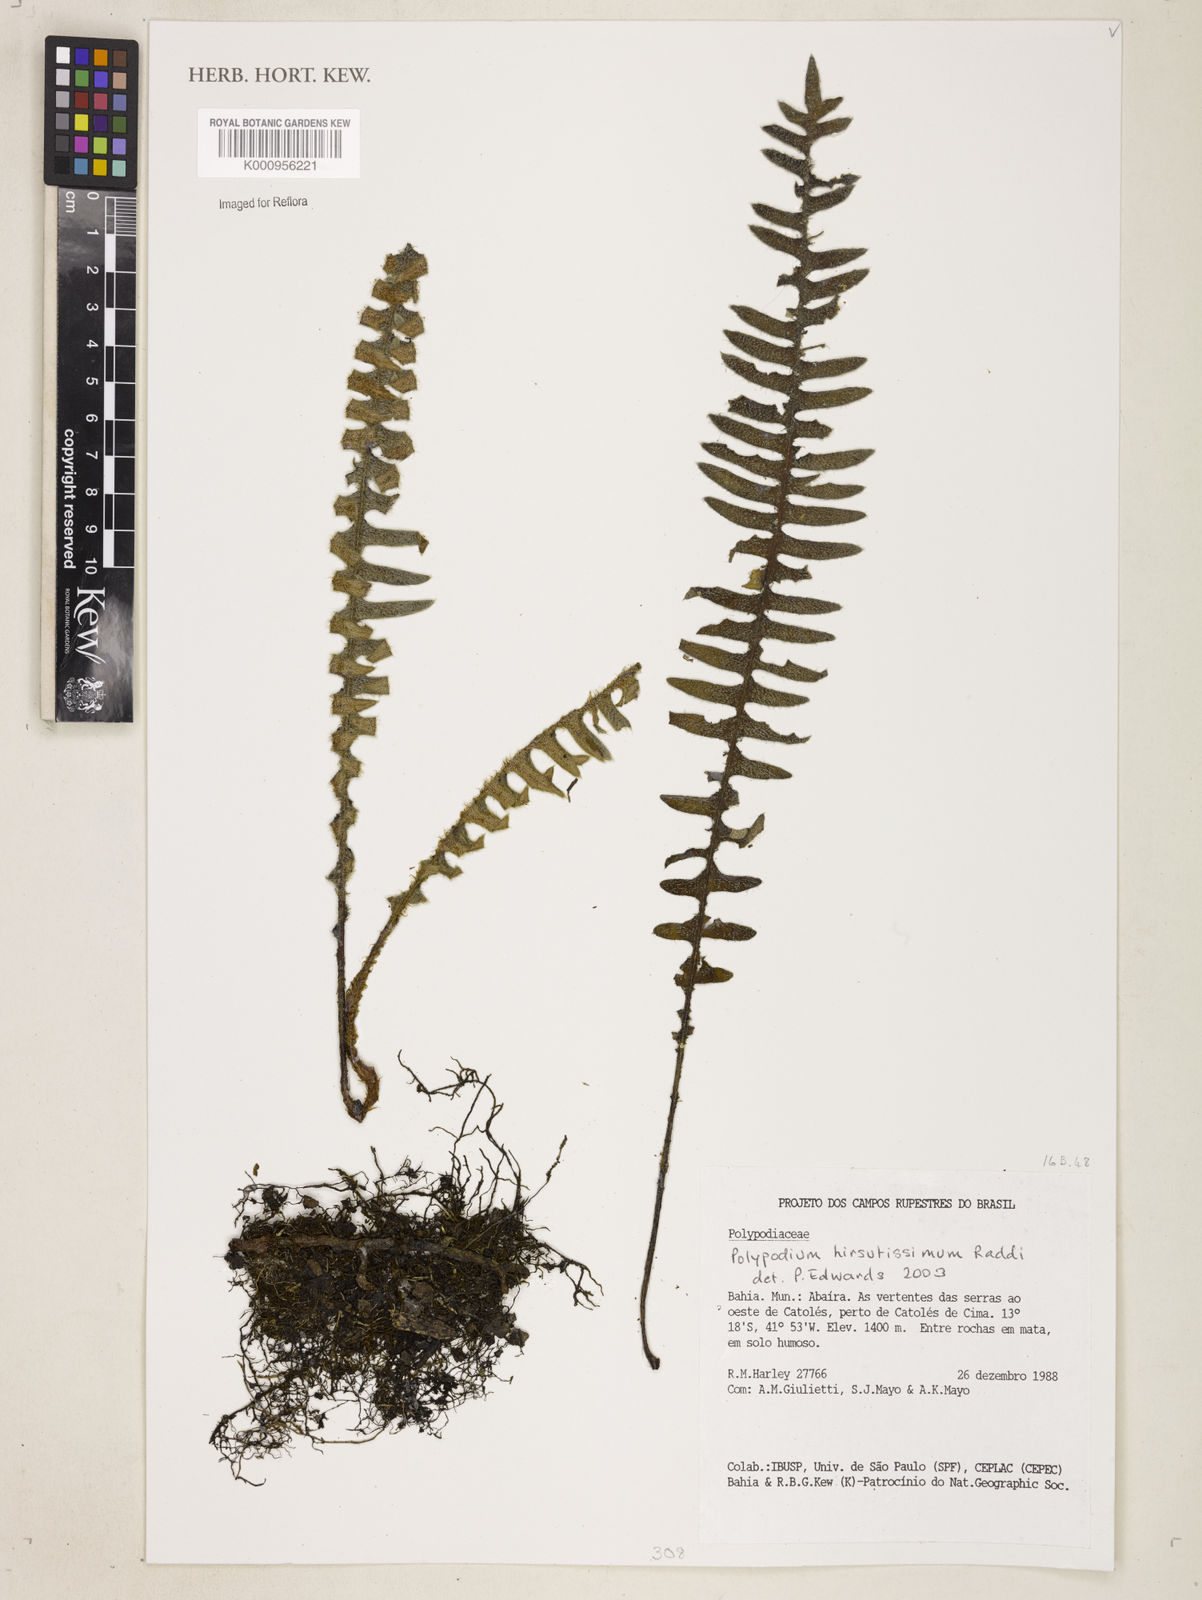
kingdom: Plantae
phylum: Tracheophyta
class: Polypodiopsida
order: Polypodiales
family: Polypodiaceae
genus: Pleopeltis
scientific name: Pleopeltis hirsutissima
